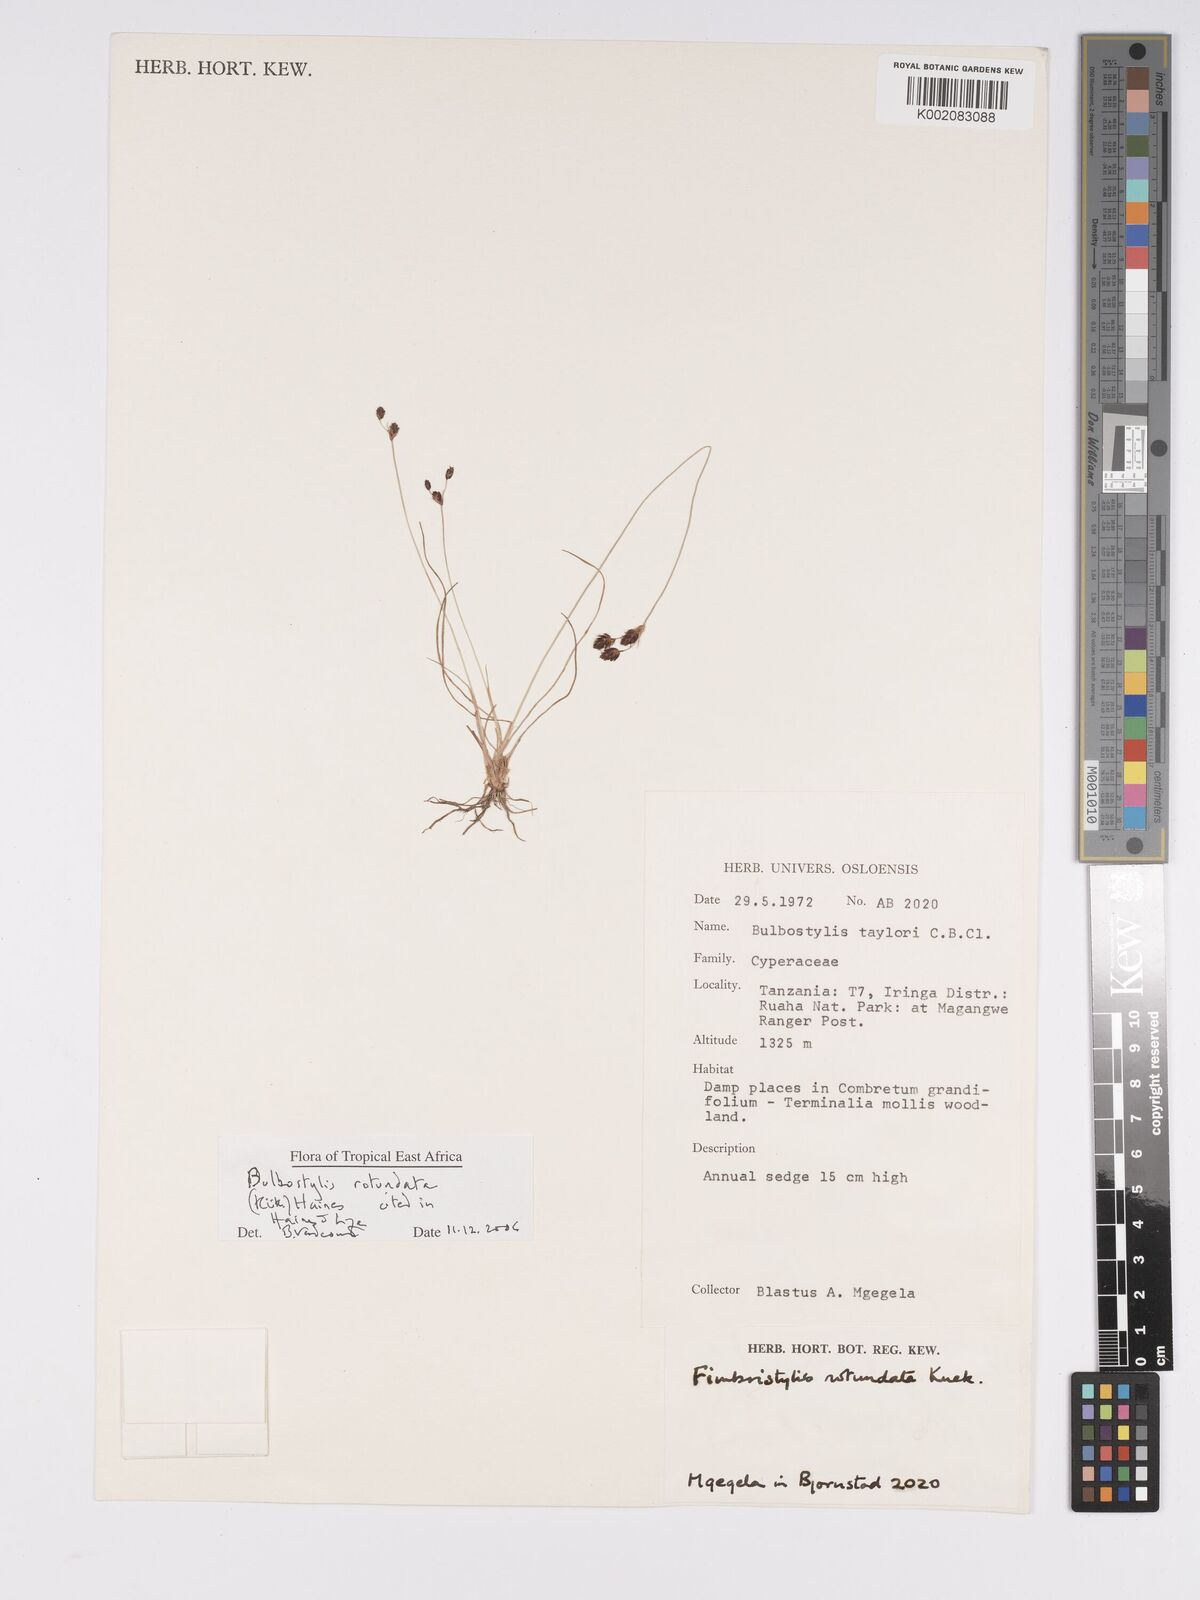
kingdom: Plantae
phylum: Tracheophyta
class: Liliopsida
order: Poales
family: Cyperaceae
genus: Bulbostylis
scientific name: Bulbostylis rotundata
